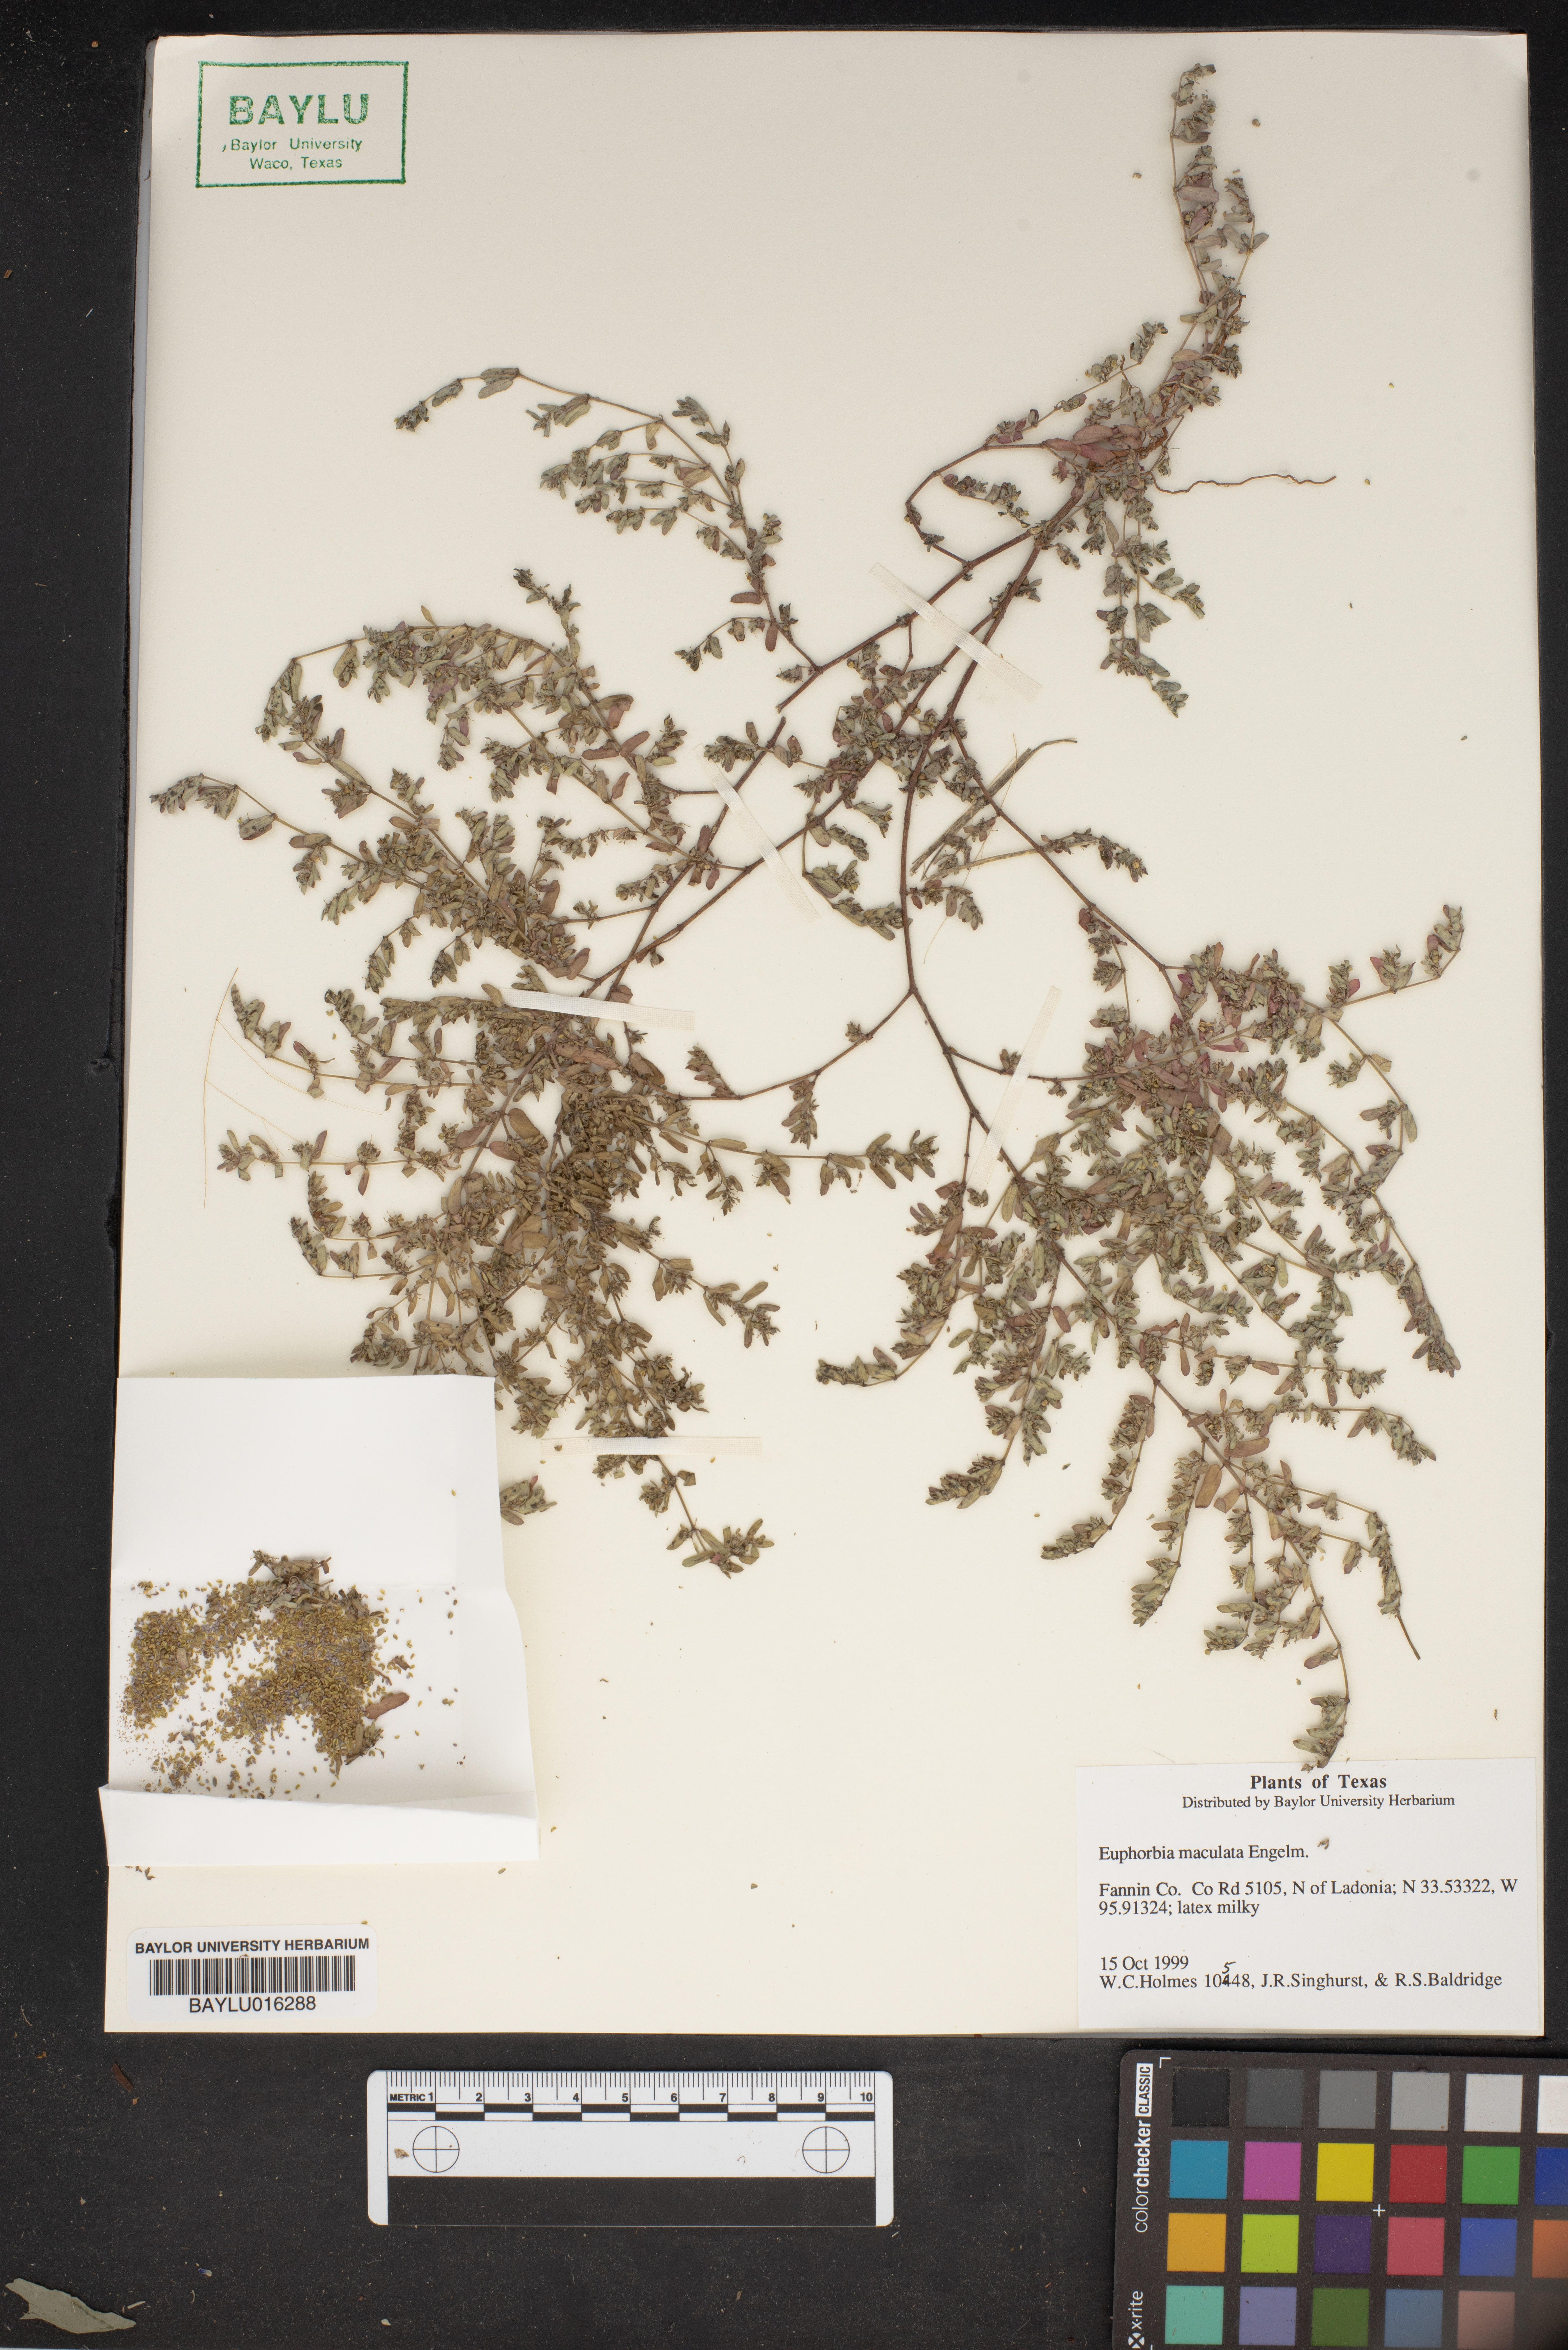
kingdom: Plantae
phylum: Tracheophyta
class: Magnoliopsida
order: Malpighiales
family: Euphorbiaceae
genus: Euphorbia
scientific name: Euphorbia maculata
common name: Spotted spurge
